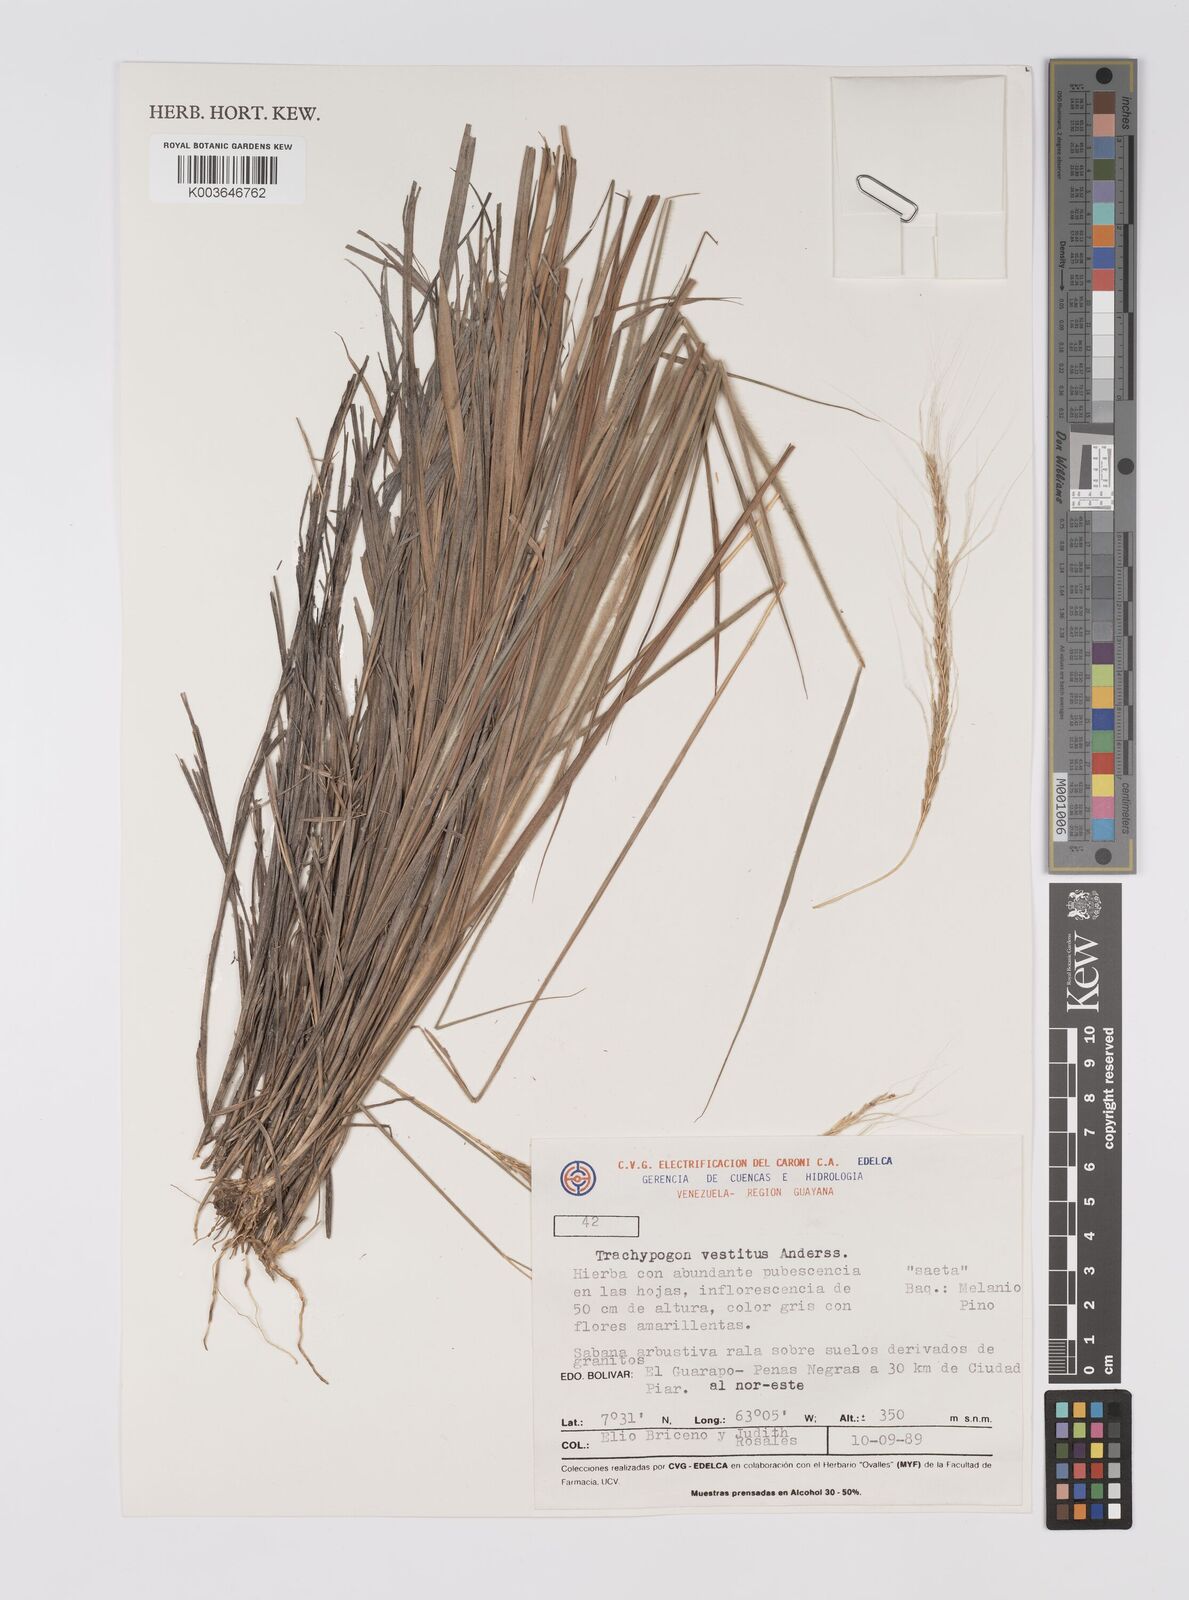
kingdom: Plantae
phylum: Tracheophyta
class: Liliopsida
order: Poales
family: Poaceae
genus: Trachypogon
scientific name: Trachypogon spicatus
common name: Crinkle-awn
